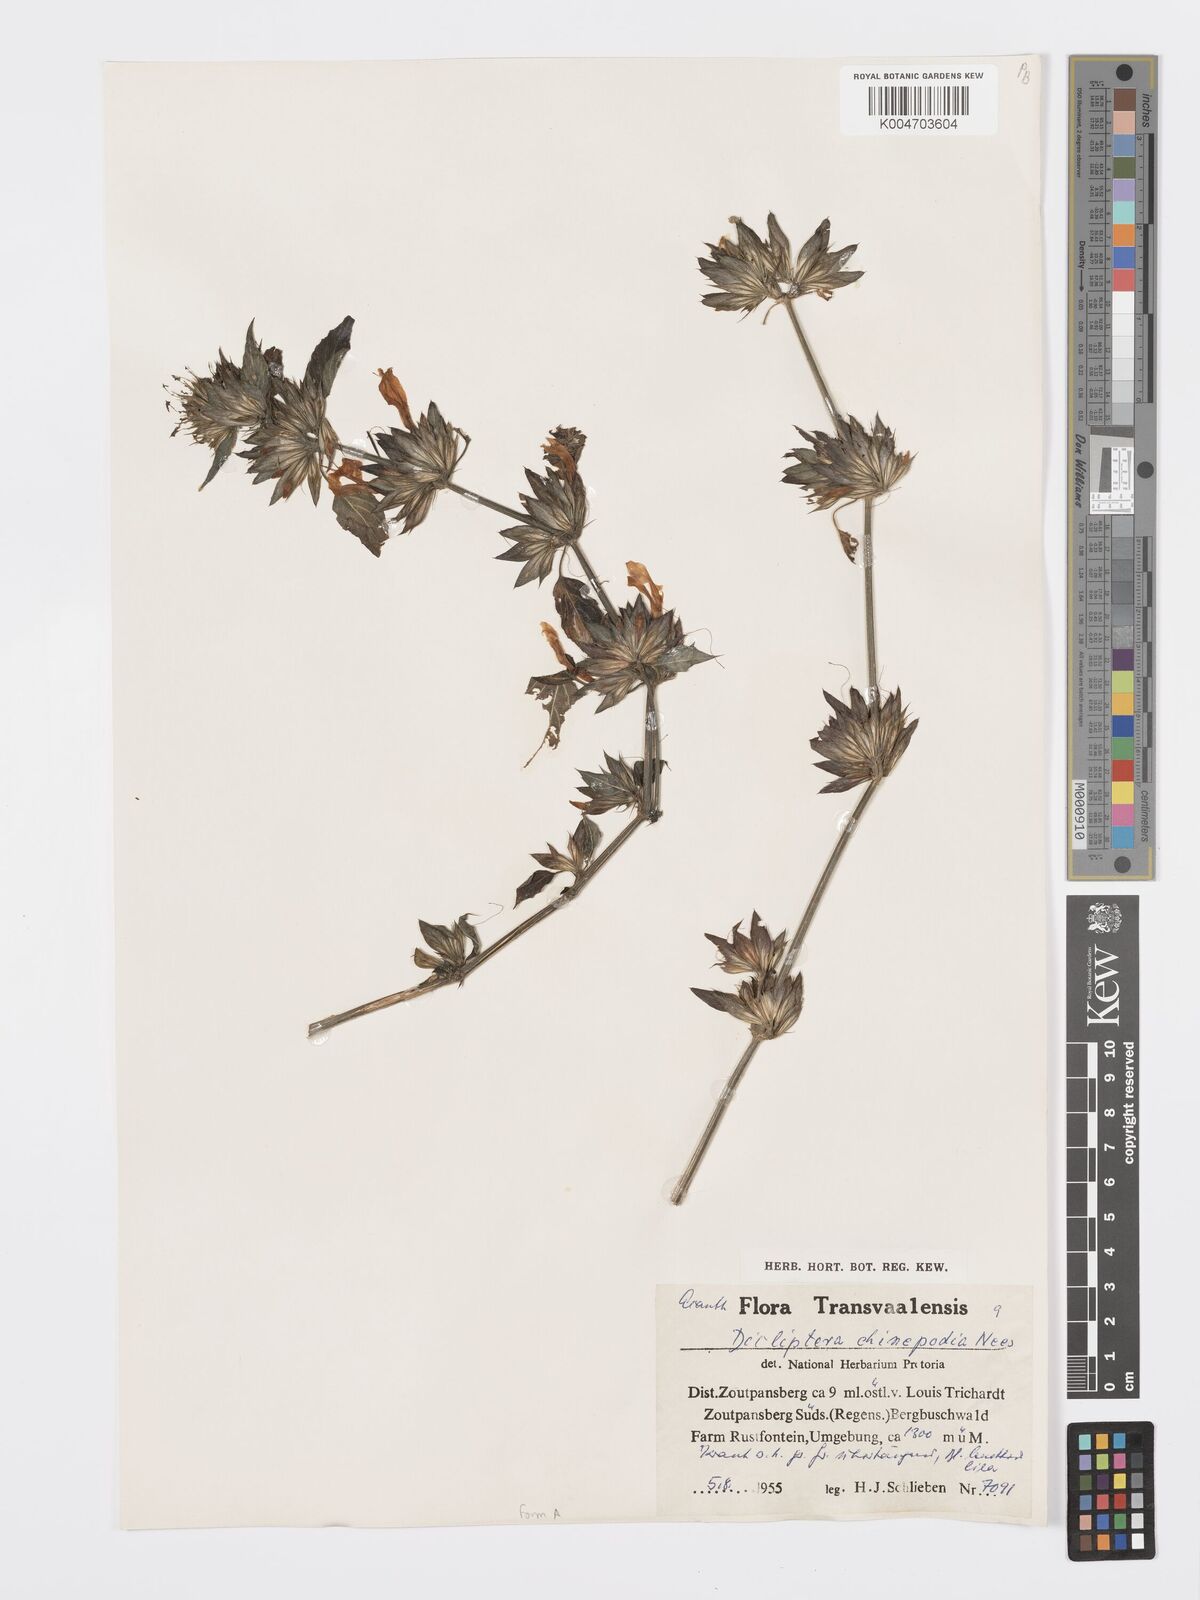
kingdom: Plantae
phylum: Tracheophyta
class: Magnoliopsida
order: Lamiales
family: Acanthaceae
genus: Dicliptera
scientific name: Dicliptera clinopodia
